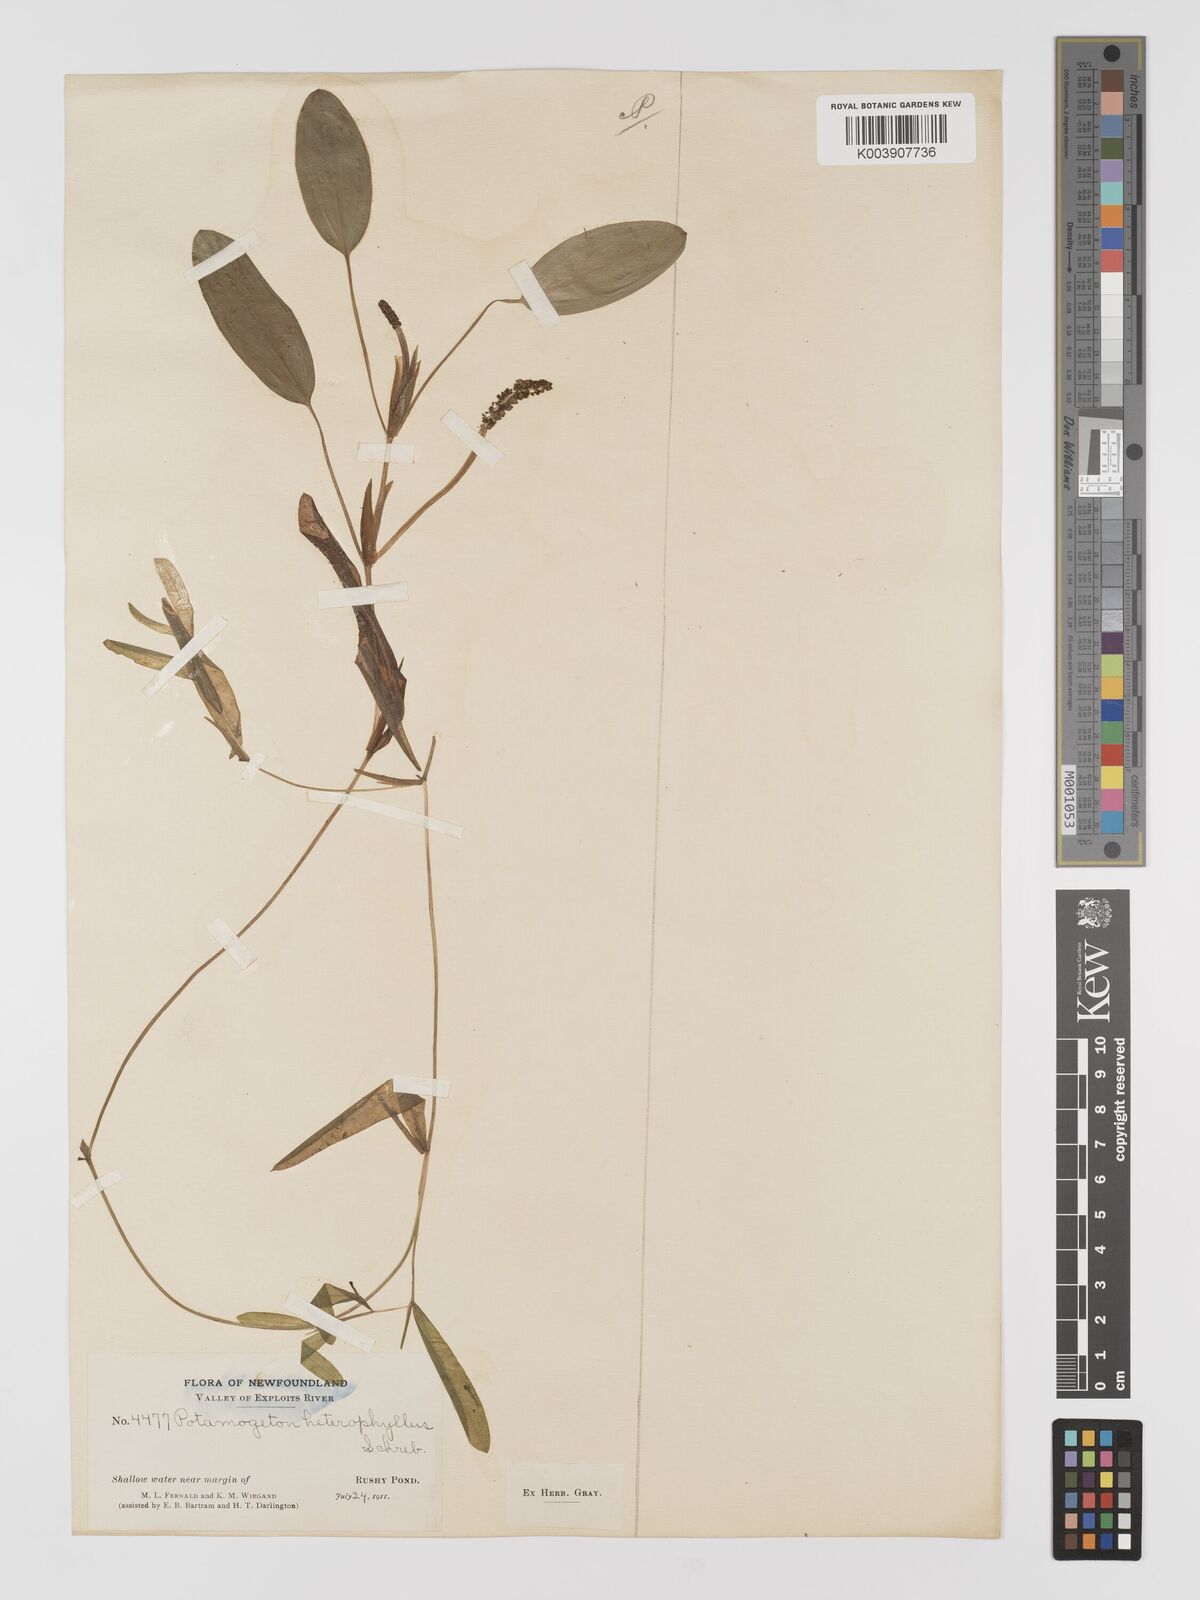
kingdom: Plantae
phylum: Tracheophyta
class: Liliopsida
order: Alismatales
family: Potamogetonaceae
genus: Potamogeton
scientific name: Potamogeton gramineus
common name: Various-leaved pondweed
